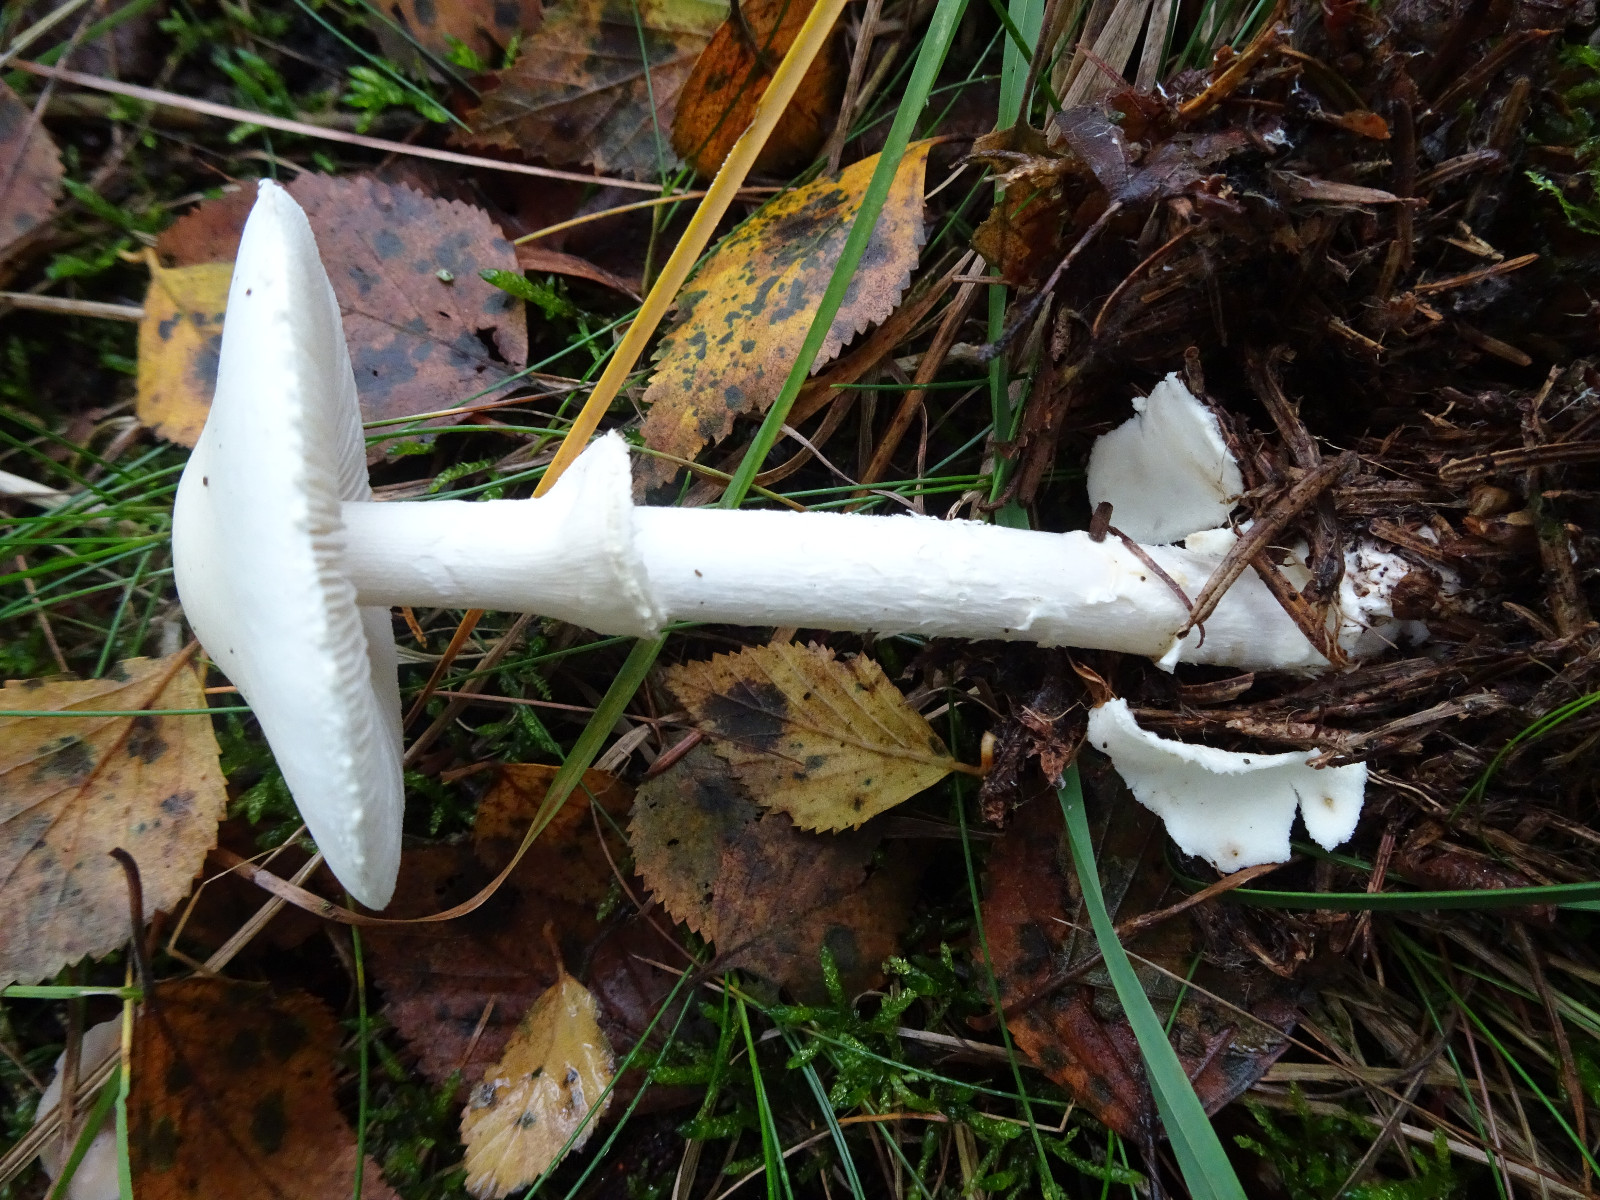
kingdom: Fungi
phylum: Basidiomycota
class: Agaricomycetes
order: Agaricales
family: Amanitaceae
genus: Amanita
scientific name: Amanita virosa
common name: snehvid fluesvamp
